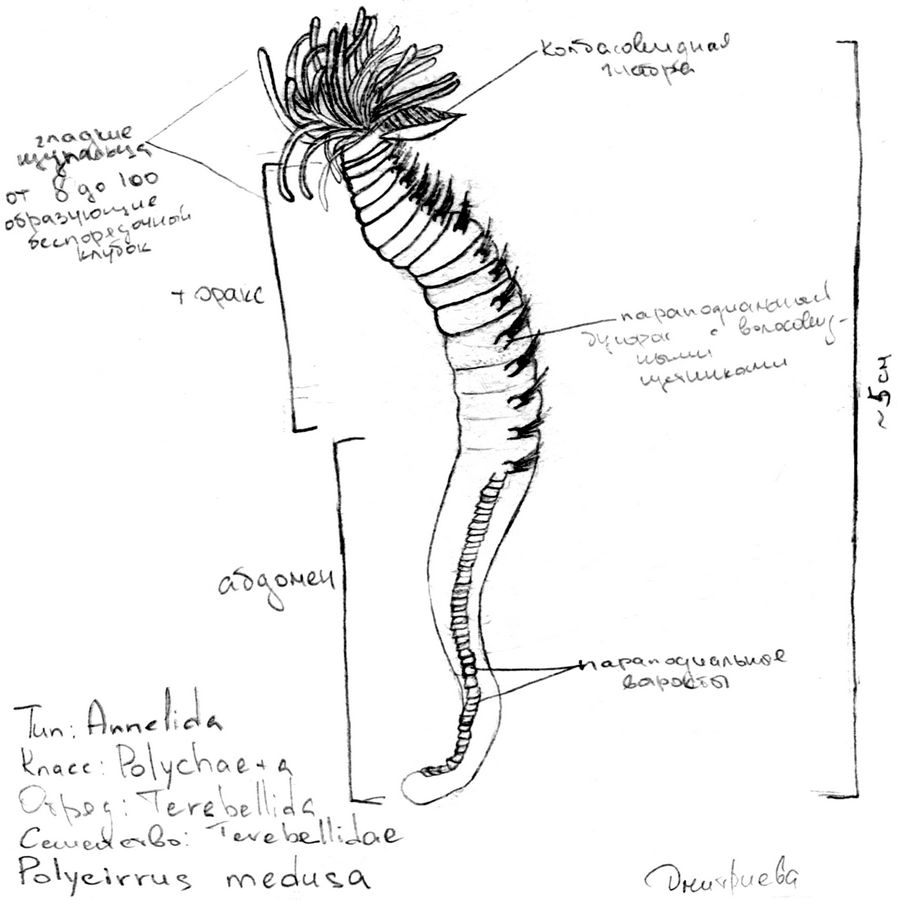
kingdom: Animalia
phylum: Annelida
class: Polychaeta
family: Terebellidae
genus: Polycirrus
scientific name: Polycirrus
